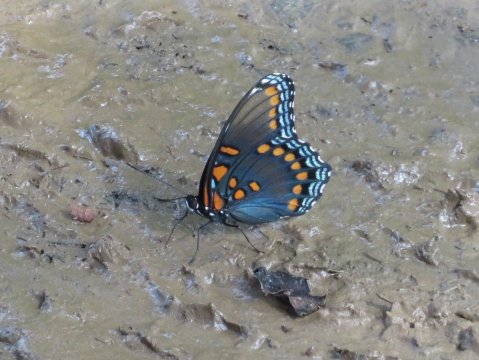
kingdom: Animalia
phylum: Arthropoda
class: Insecta
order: Lepidoptera
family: Nymphalidae
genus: Limenitis
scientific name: Limenitis arthemis
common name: Red-spotted Admiral
